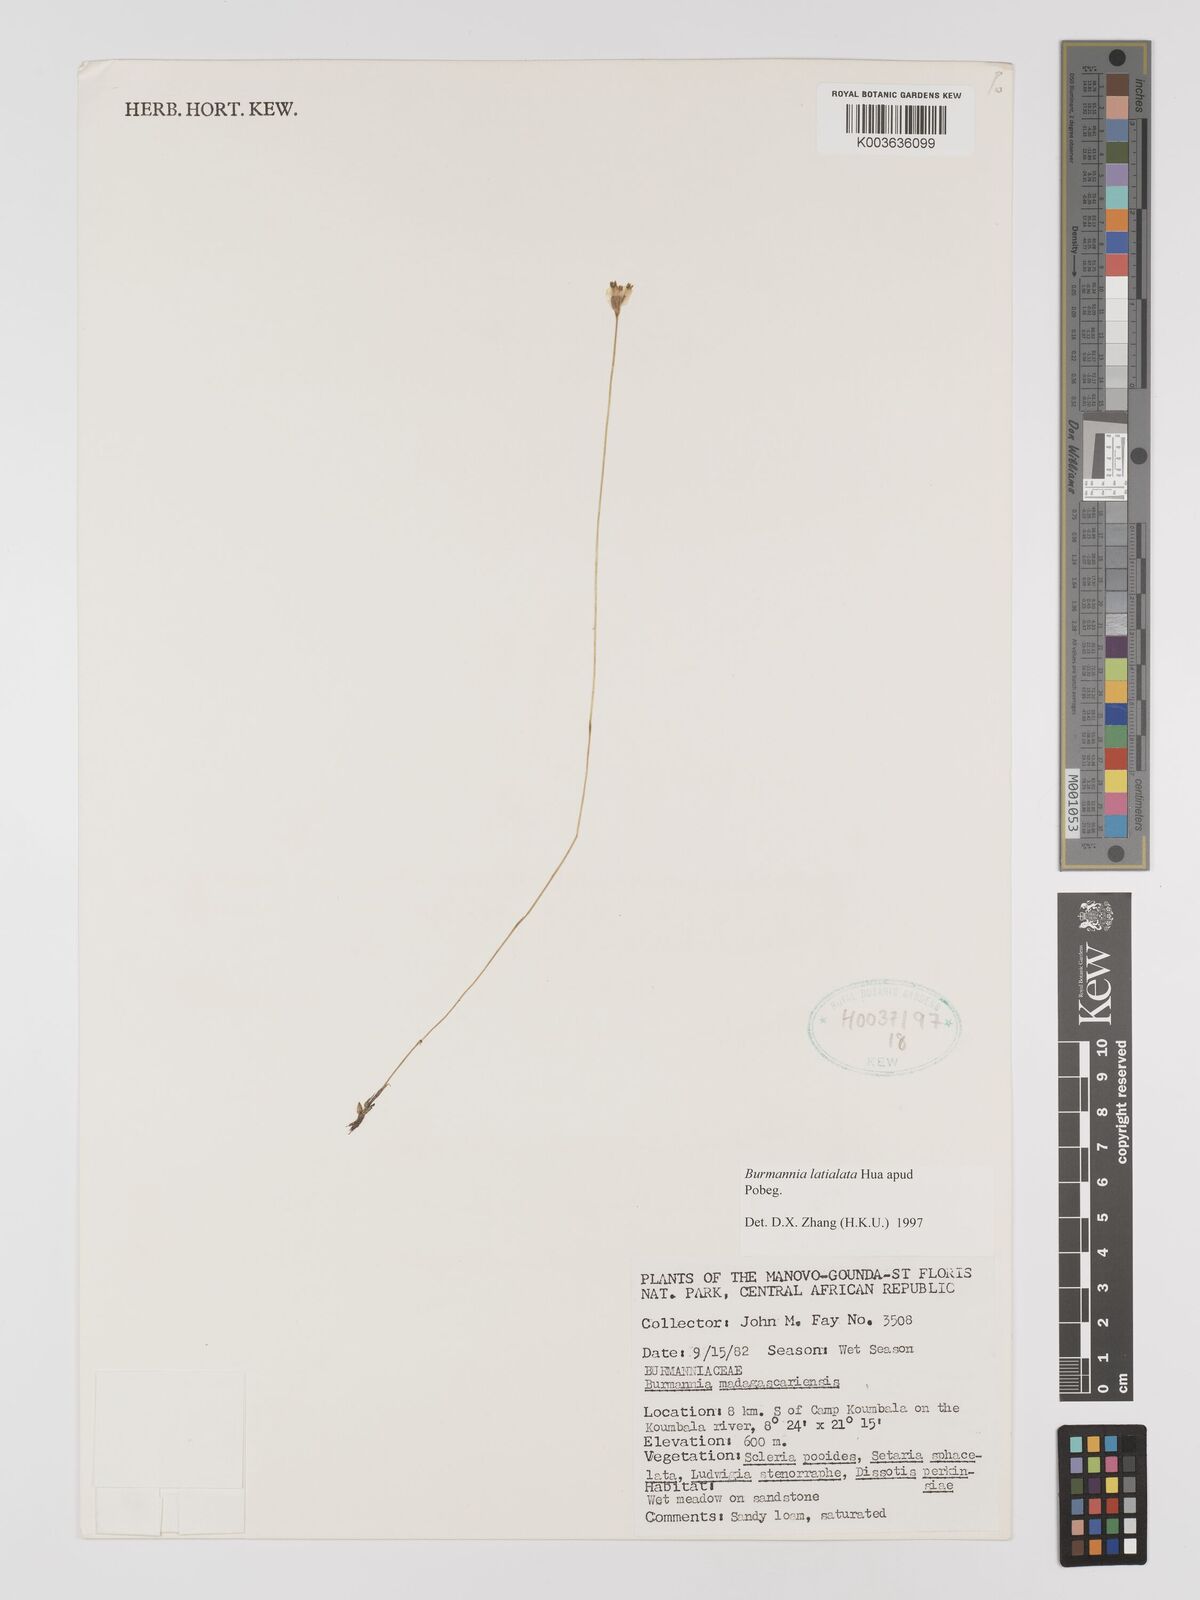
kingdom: Plantae
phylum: Tracheophyta
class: Liliopsida
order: Dioscoreales
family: Burmanniaceae
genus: Burmannia
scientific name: Burmannia madagascariensis
